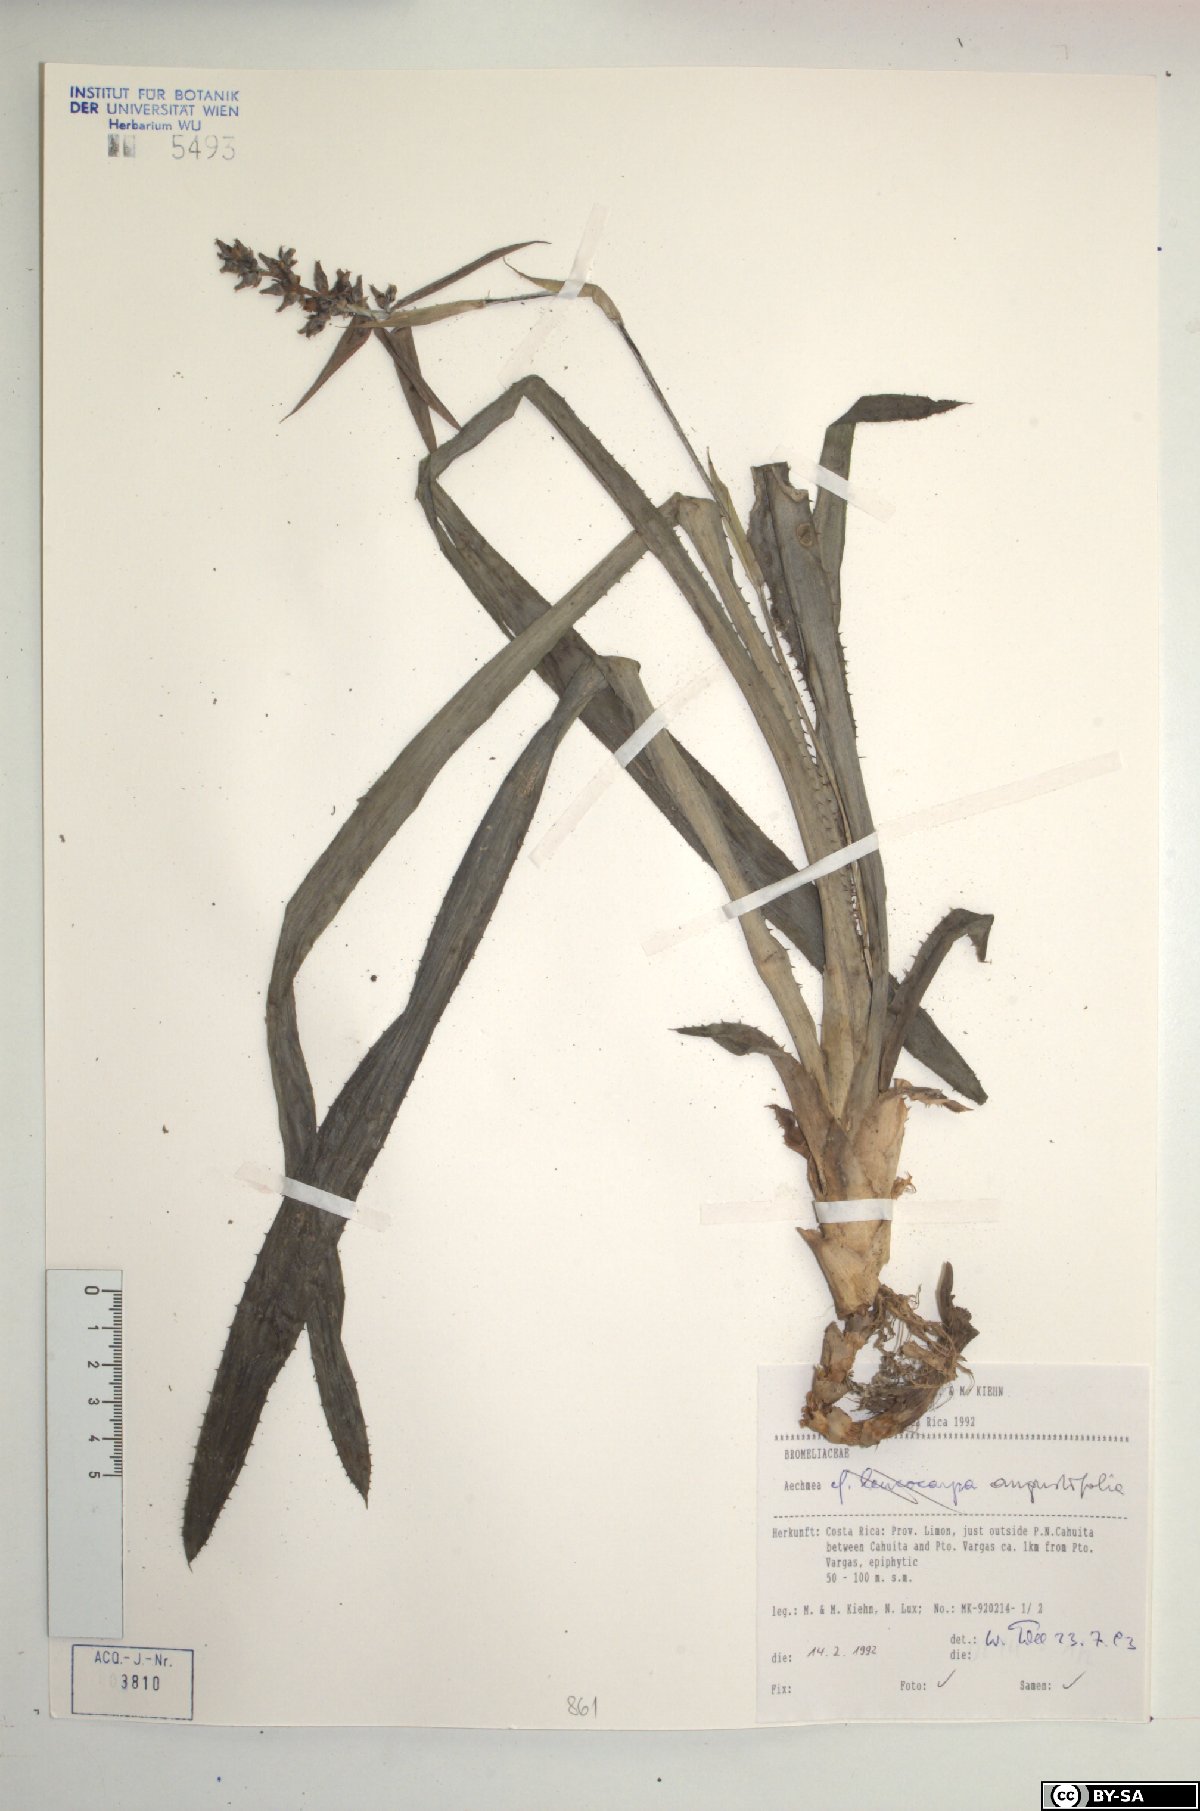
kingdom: Plantae
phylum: Tracheophyta
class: Liliopsida
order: Poales
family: Bromeliaceae
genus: Aechmea
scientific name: Aechmea angustifolia
